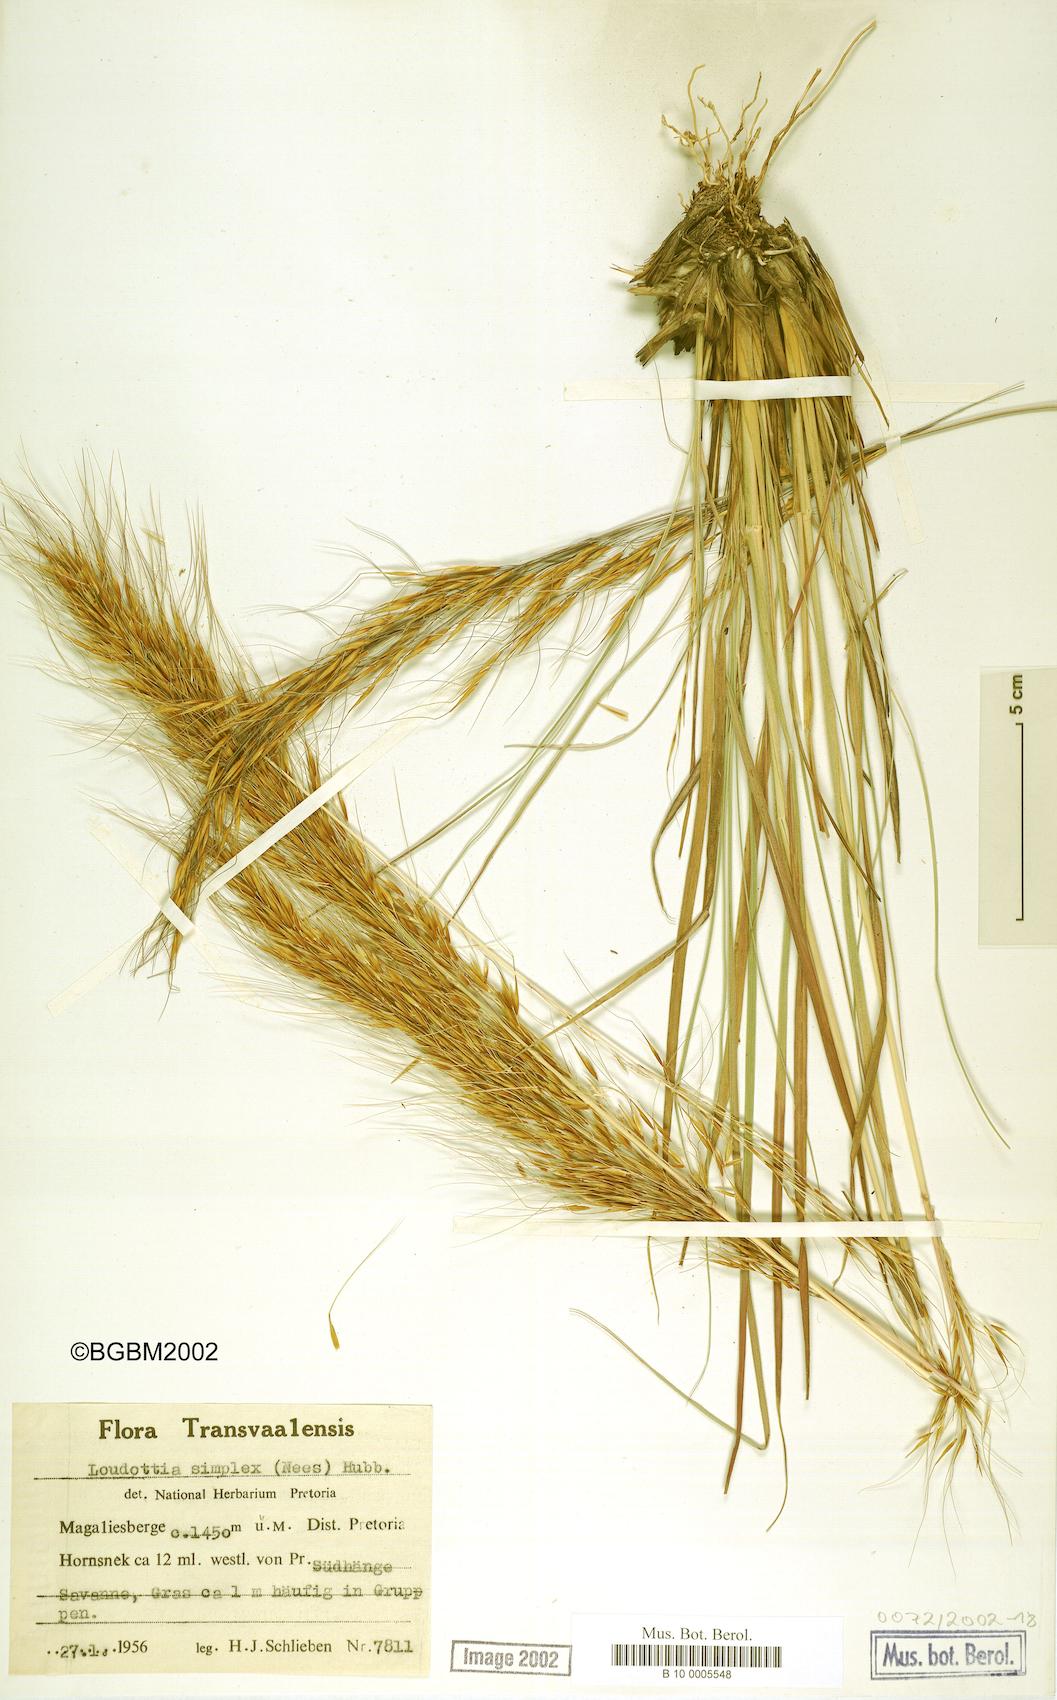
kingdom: Plantae
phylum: Tracheophyta
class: Liliopsida
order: Poales
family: Poaceae
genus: Loudetia
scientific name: Loudetia simplex
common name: Common russet grass
